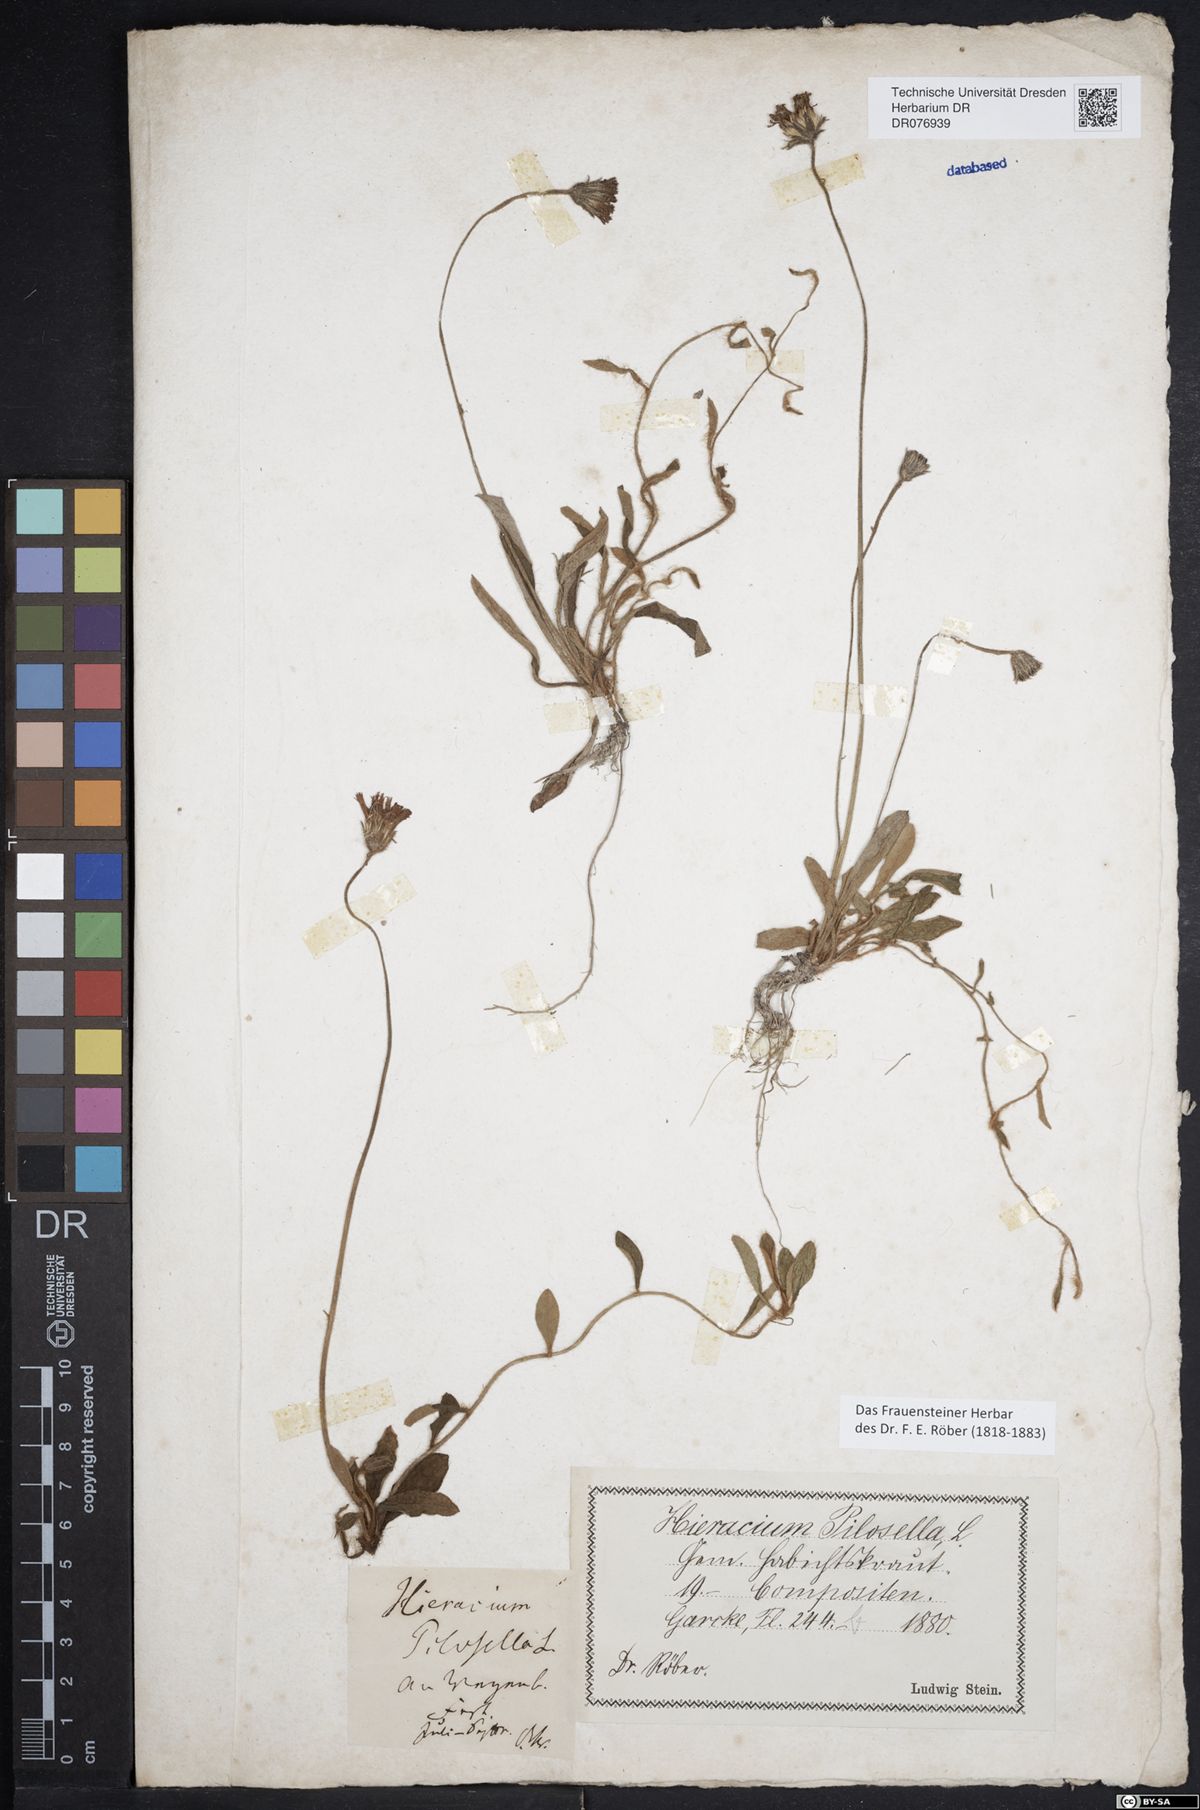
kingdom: Plantae
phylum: Tracheophyta
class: Magnoliopsida
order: Asterales
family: Asteraceae
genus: Pilosella
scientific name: Pilosella officinarum
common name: Mouse-ear hawkweed
